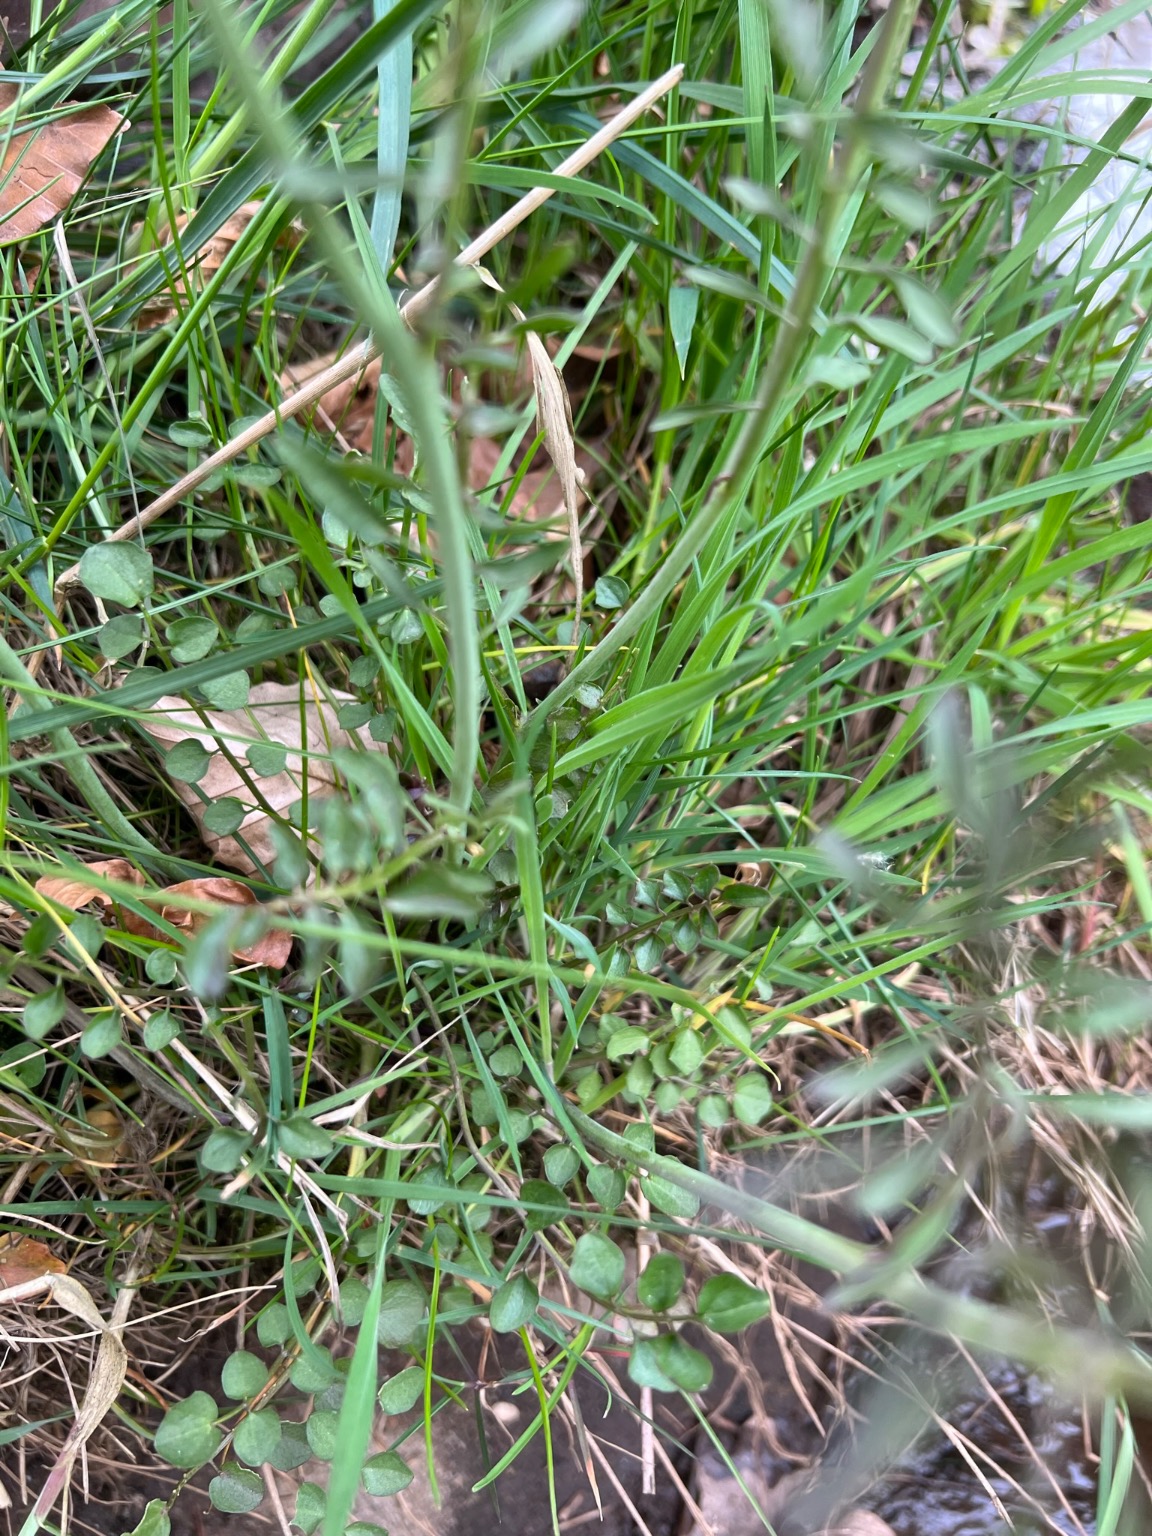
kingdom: Plantae
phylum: Tracheophyta
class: Magnoliopsida
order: Brassicales
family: Brassicaceae
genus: Cardamine
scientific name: Cardamine pratensis
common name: Engkarse
